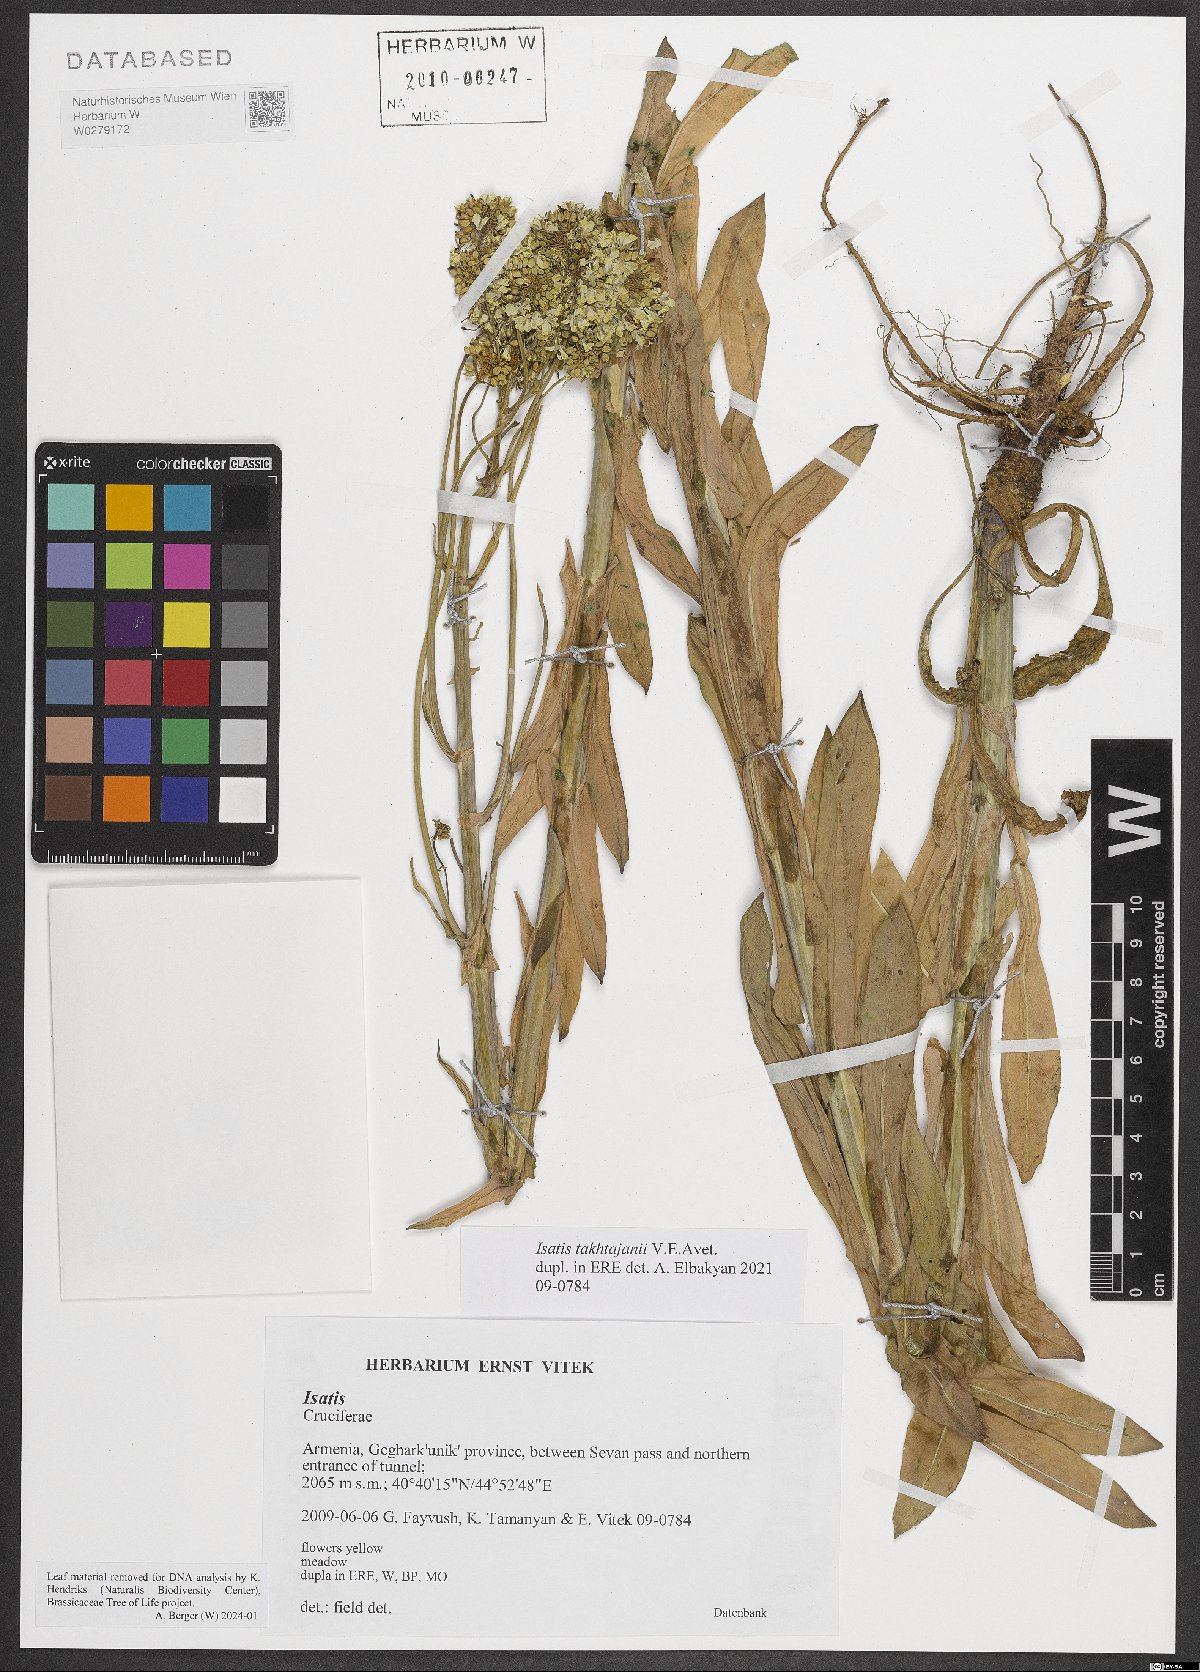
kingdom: Plantae
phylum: Tracheophyta
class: Magnoliopsida
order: Brassicales
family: Brassicaceae
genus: Isatis
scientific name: Isatis takhtajanii
